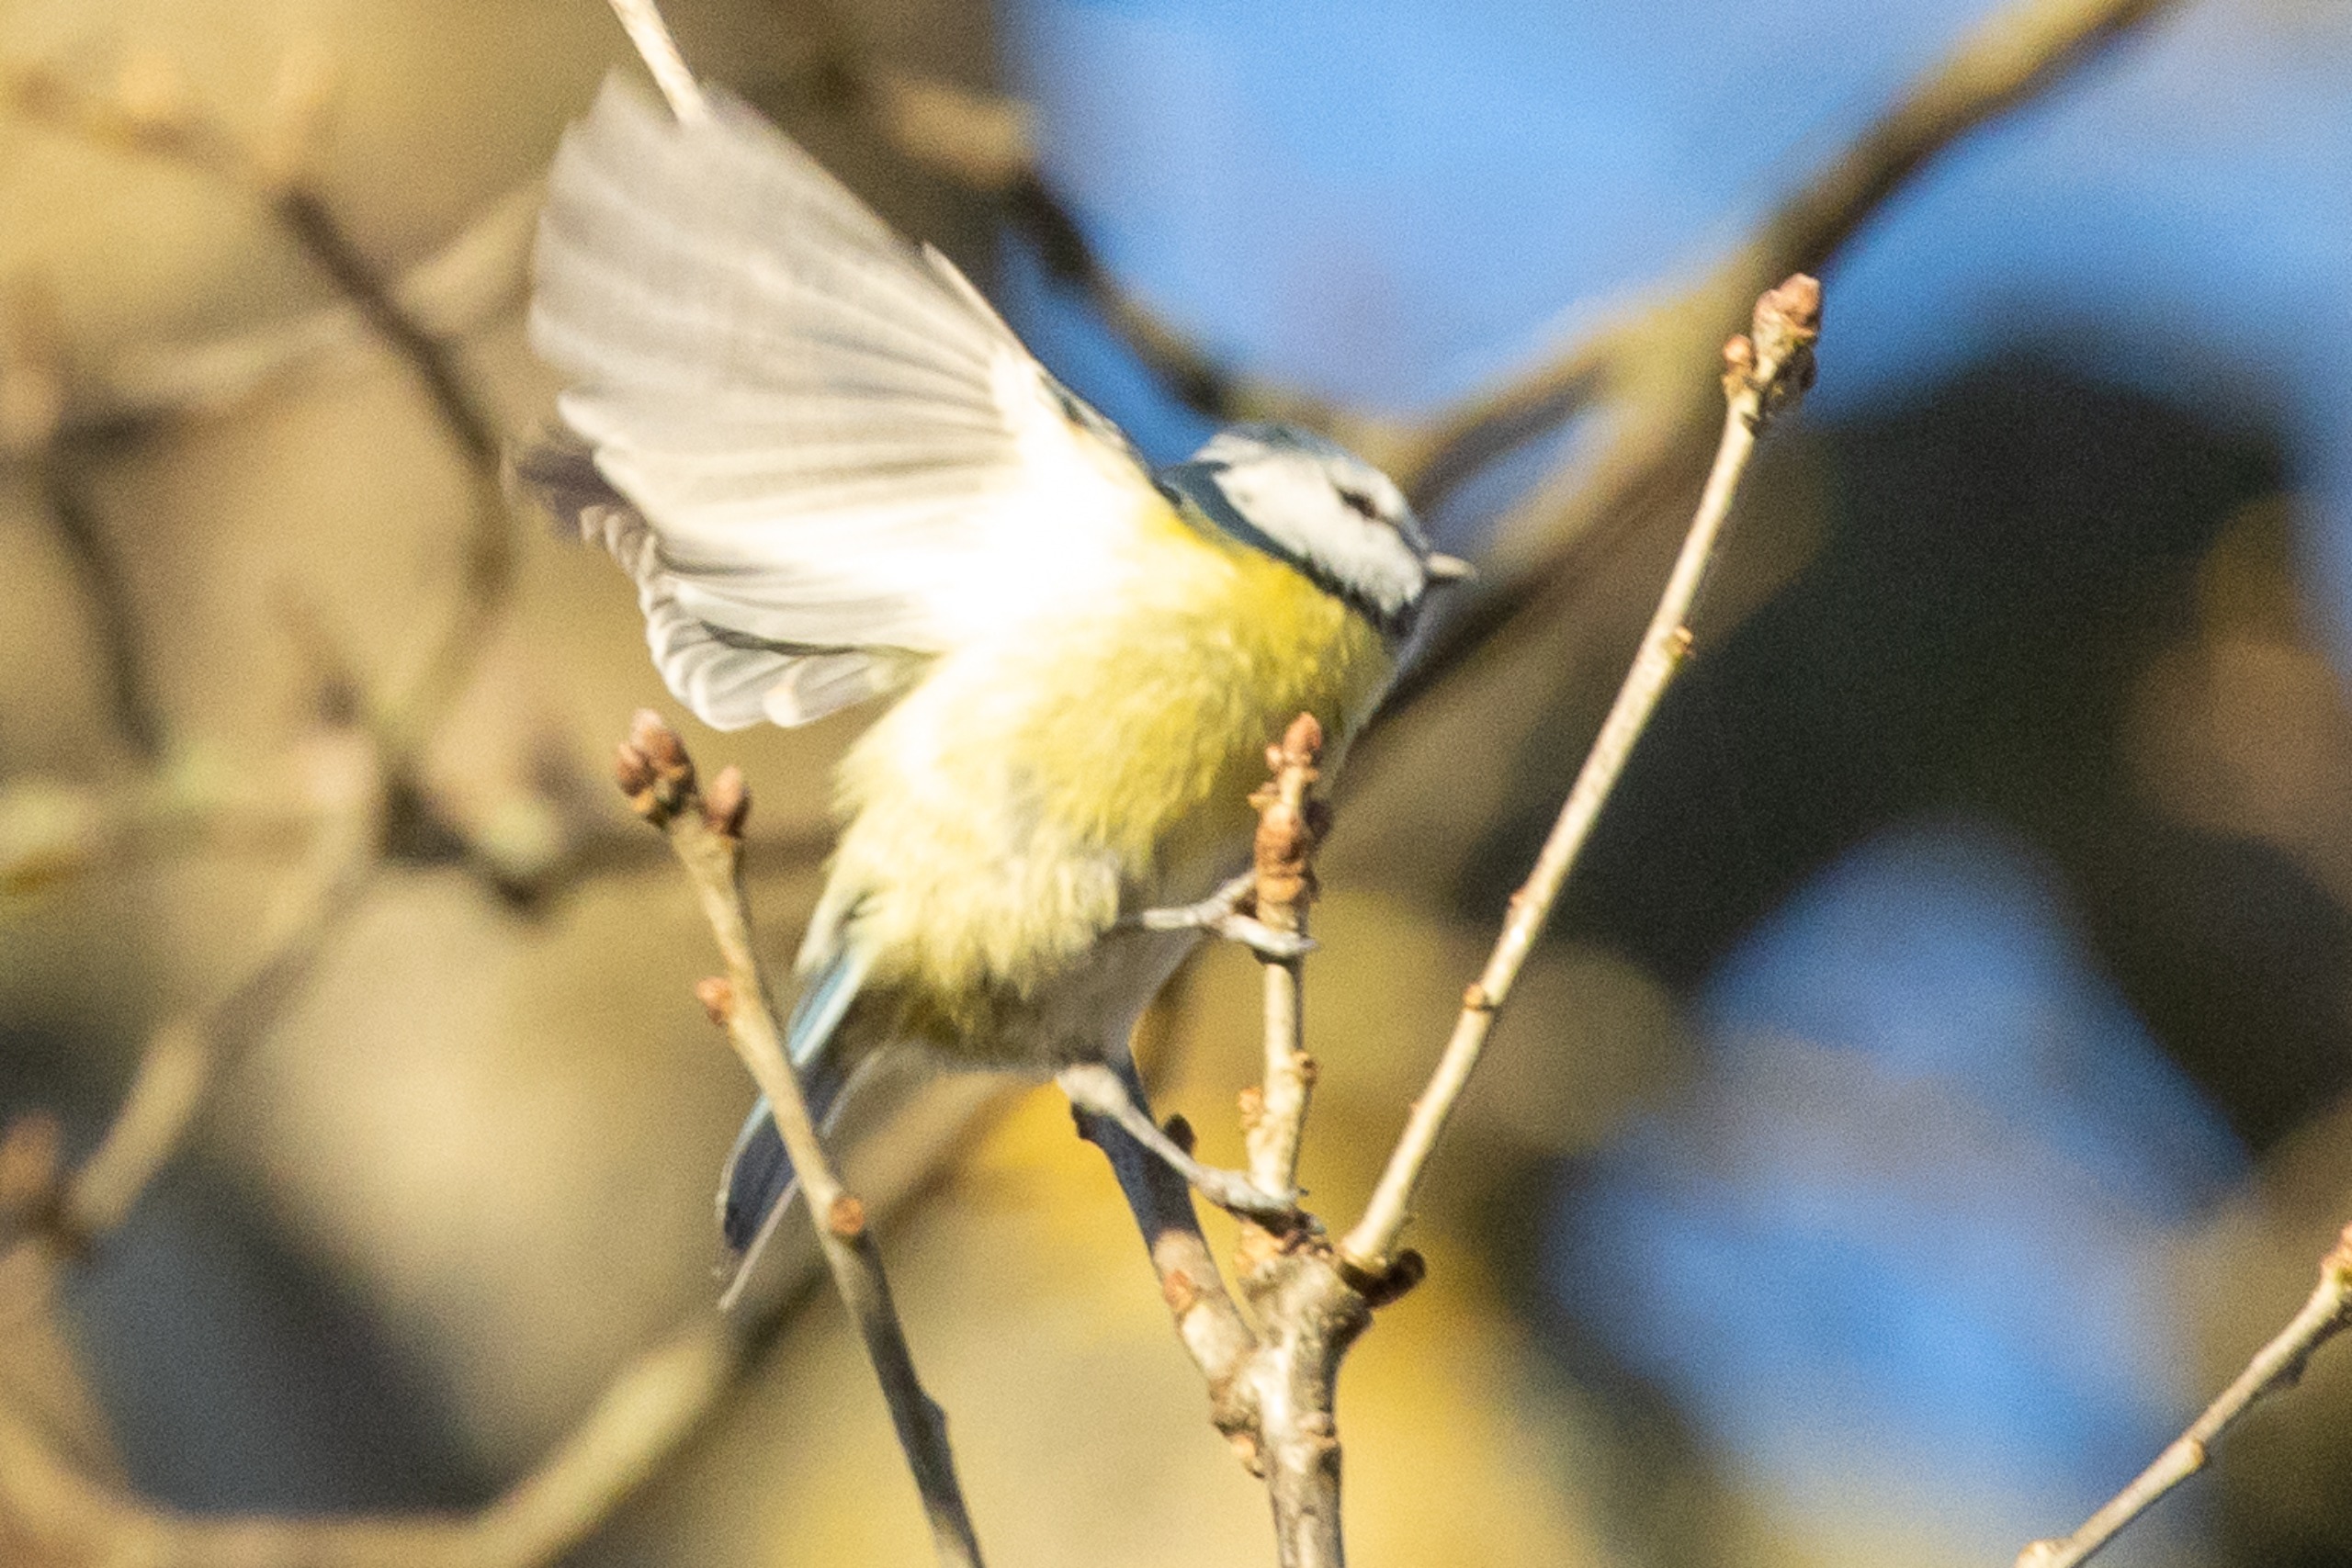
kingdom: Animalia
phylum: Chordata
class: Aves
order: Passeriformes
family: Paridae
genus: Cyanistes
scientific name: Cyanistes caeruleus
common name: Blåmejse
